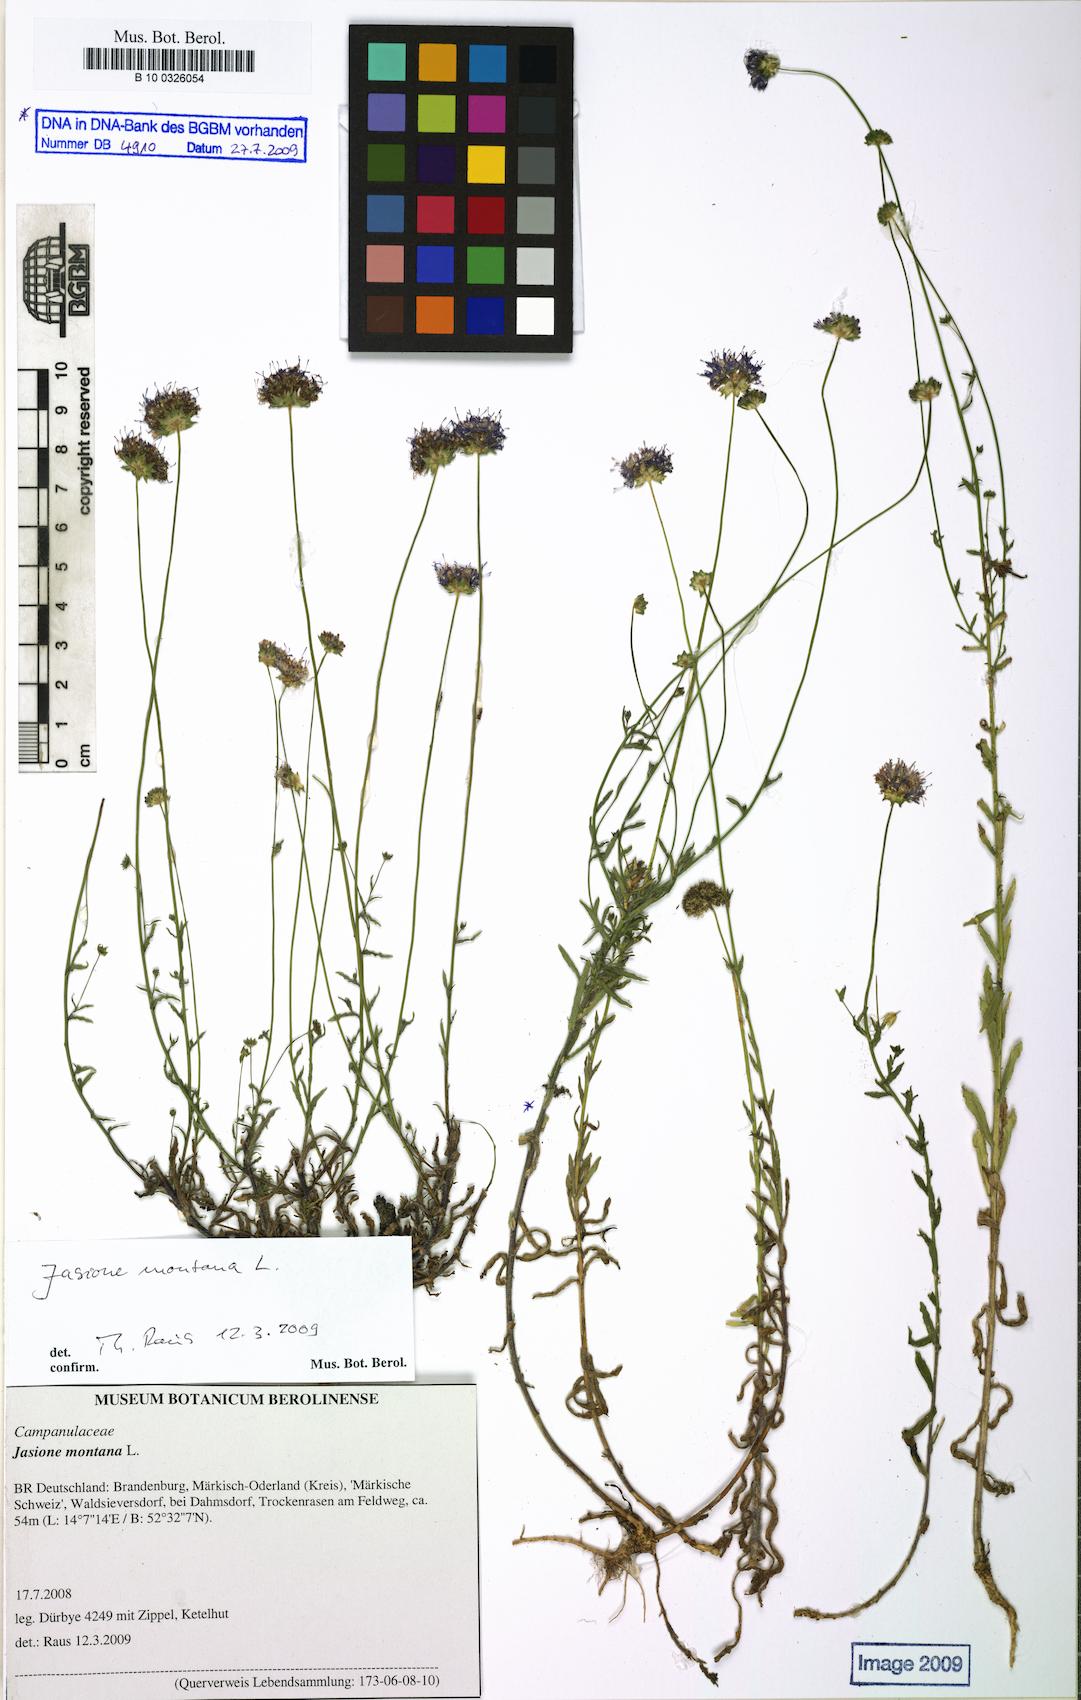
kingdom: Plantae
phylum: Tracheophyta
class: Magnoliopsida
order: Asterales
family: Campanulaceae
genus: Jasione
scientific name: Jasione montana
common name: Sheep's-bit
